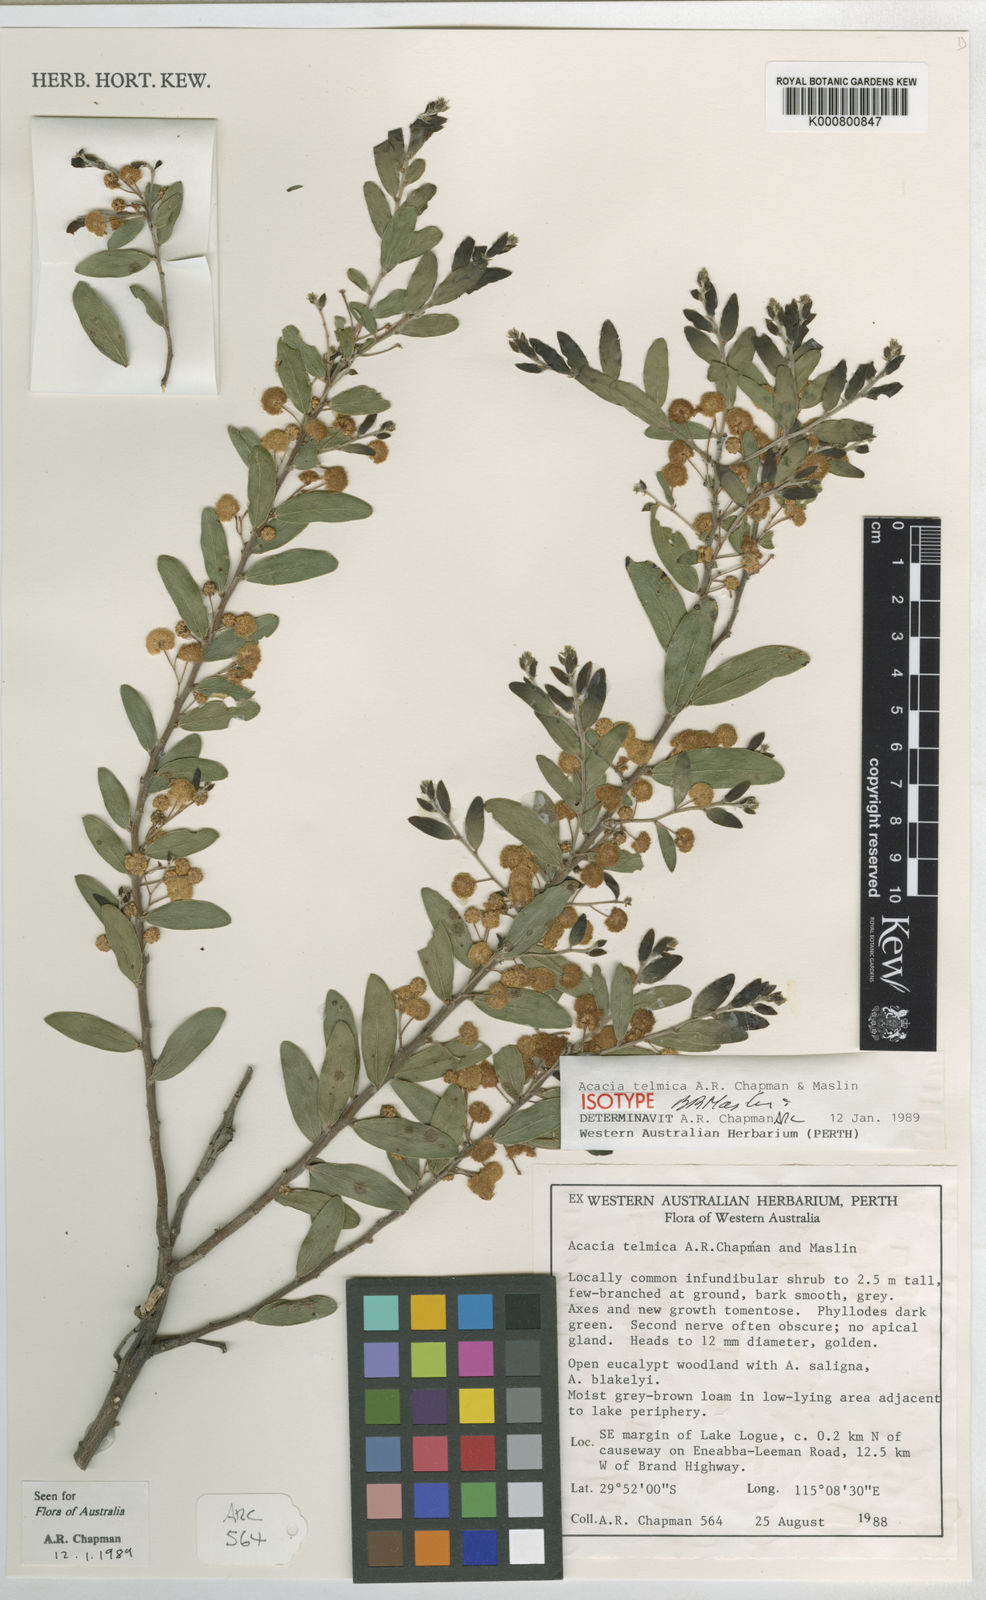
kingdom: Plantae
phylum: Tracheophyta
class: Magnoliopsida
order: Fabales
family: Fabaceae
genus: Acacia
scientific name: Acacia telmica
